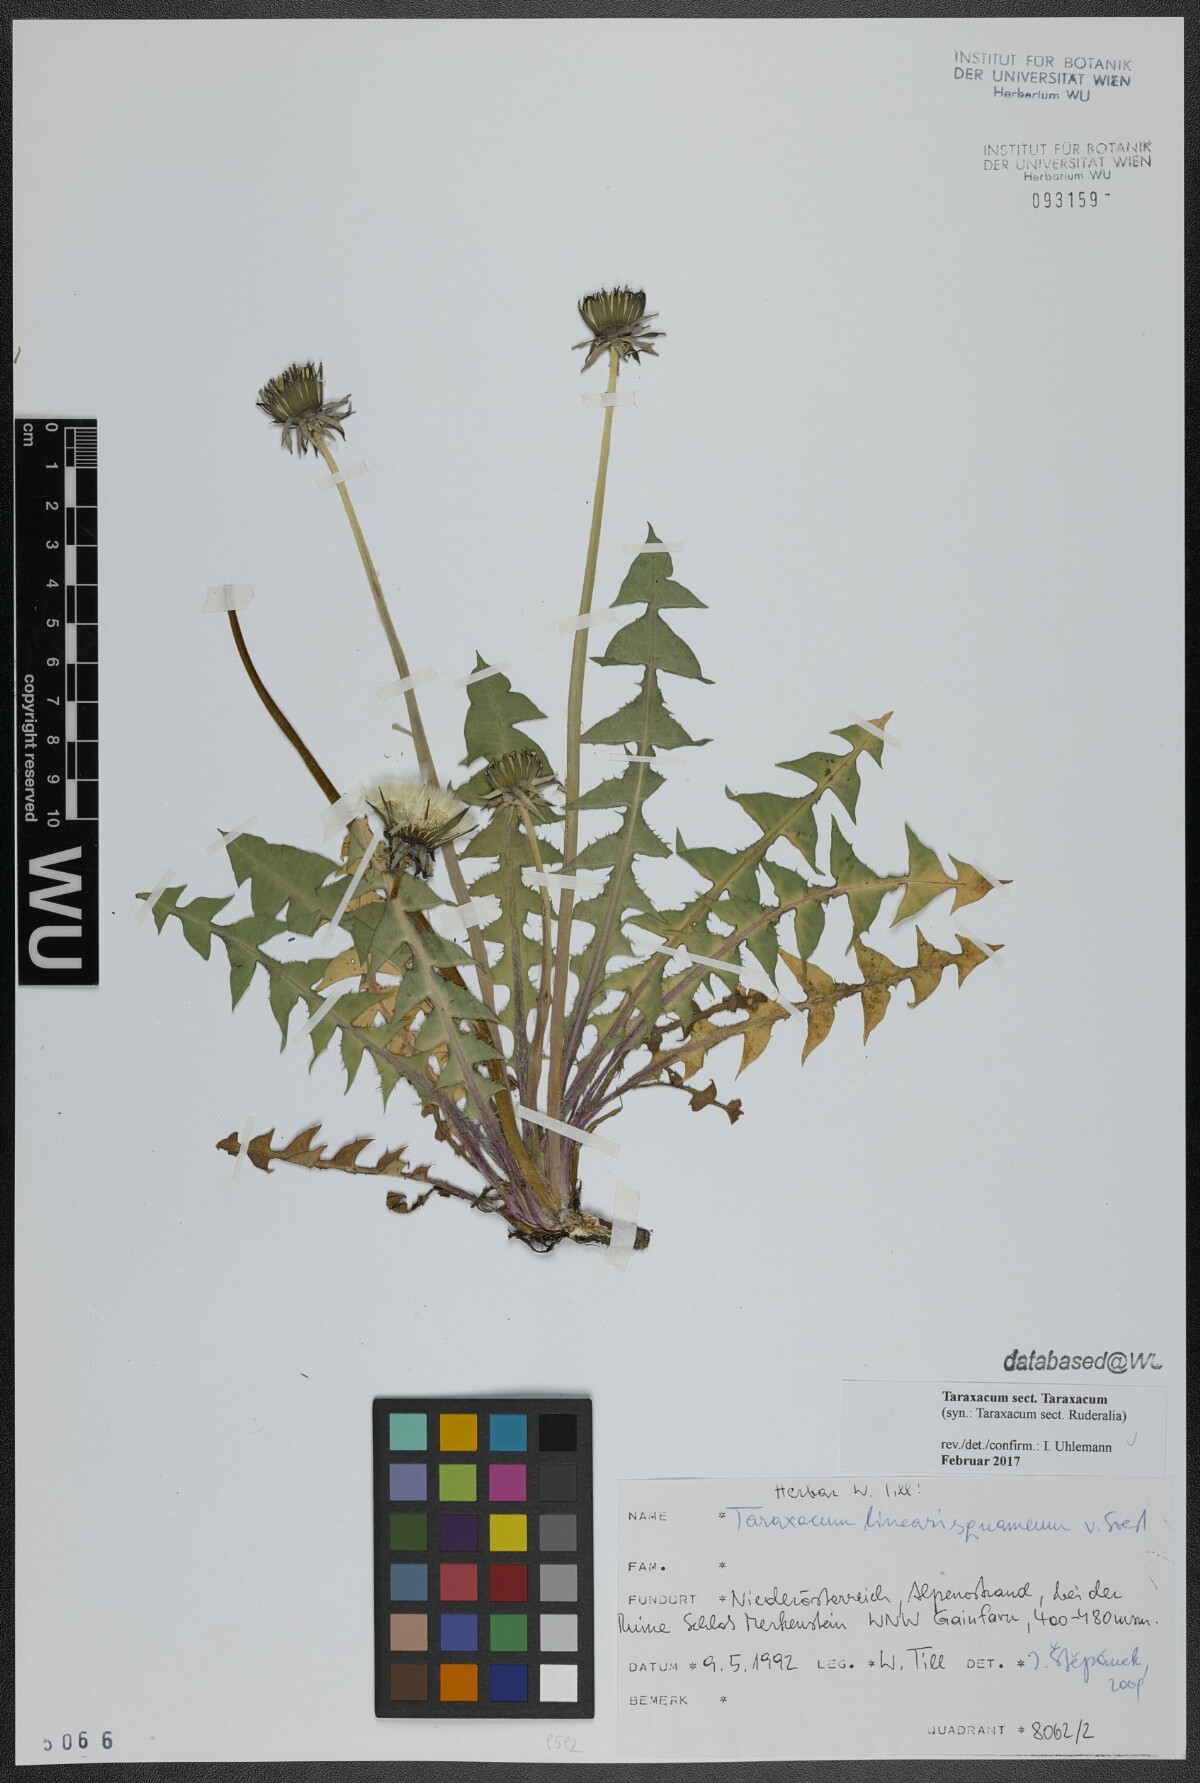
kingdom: Plantae
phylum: Tracheophyta
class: Magnoliopsida
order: Asterales
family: Asteraceae
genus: Taraxacum
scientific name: Taraxacum
